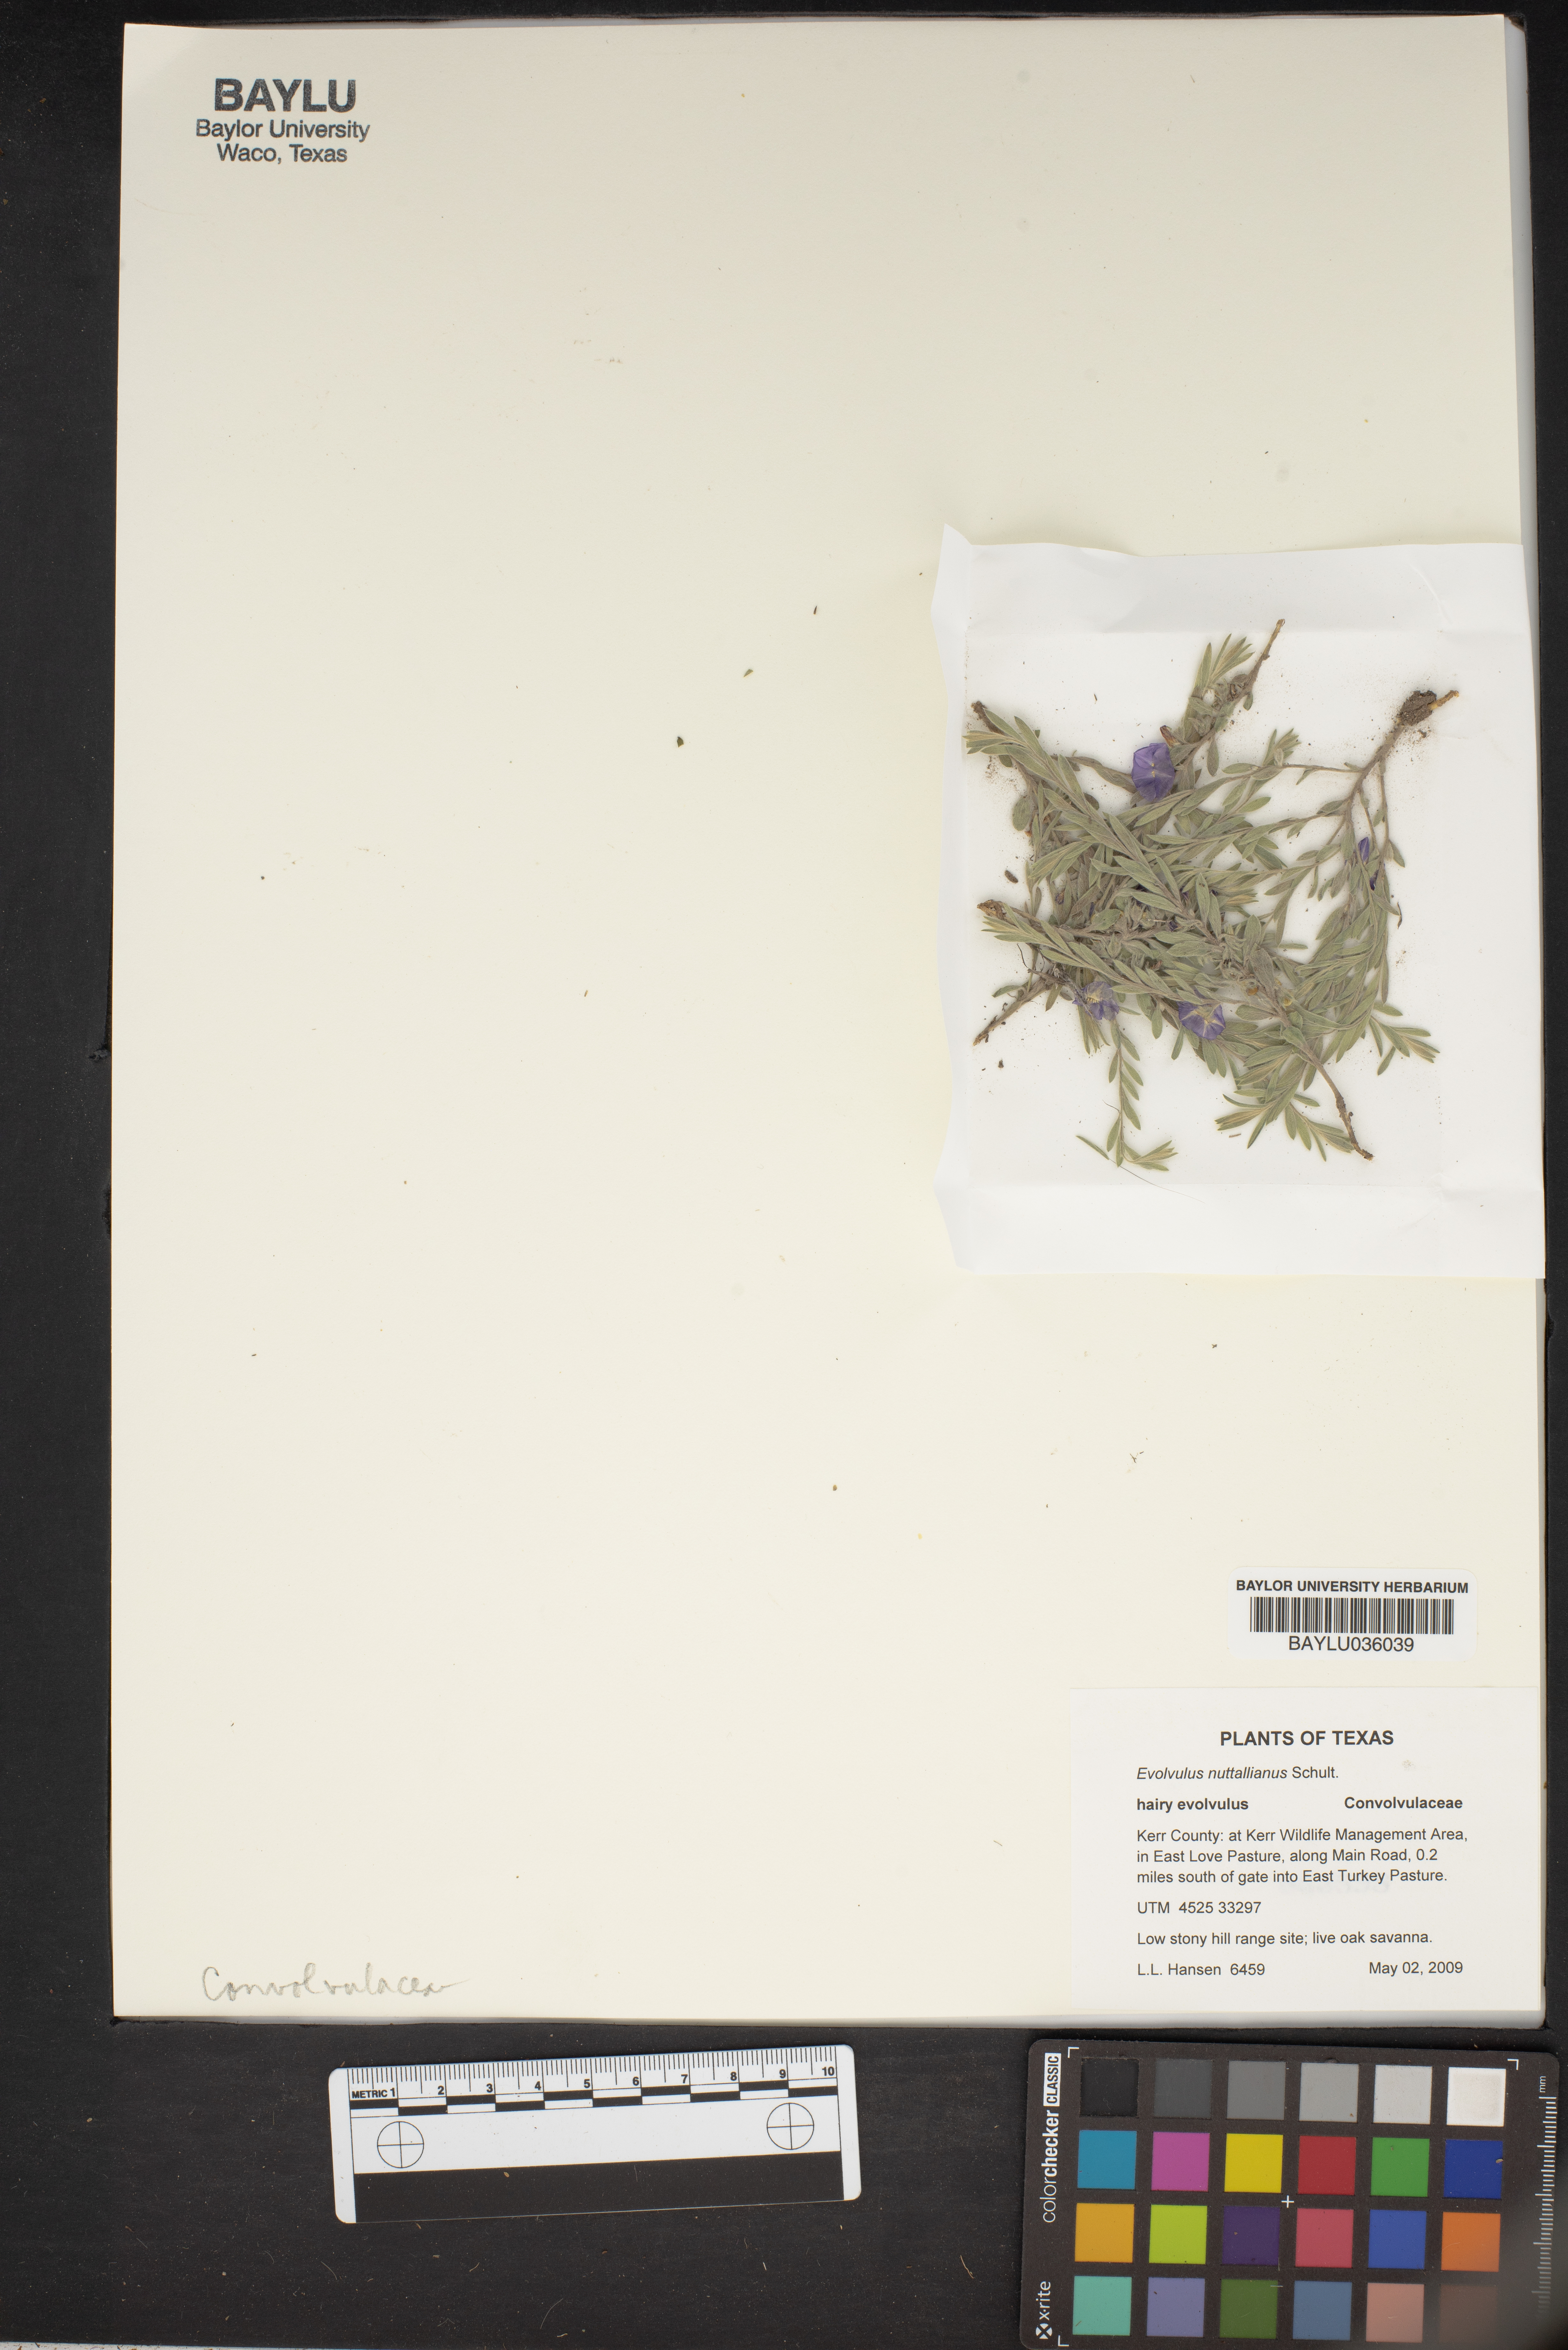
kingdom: Plantae
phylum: Tracheophyta
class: Magnoliopsida
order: Solanales
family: Convolvulaceae
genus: Evolvulus
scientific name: Evolvulus nuttallianus
